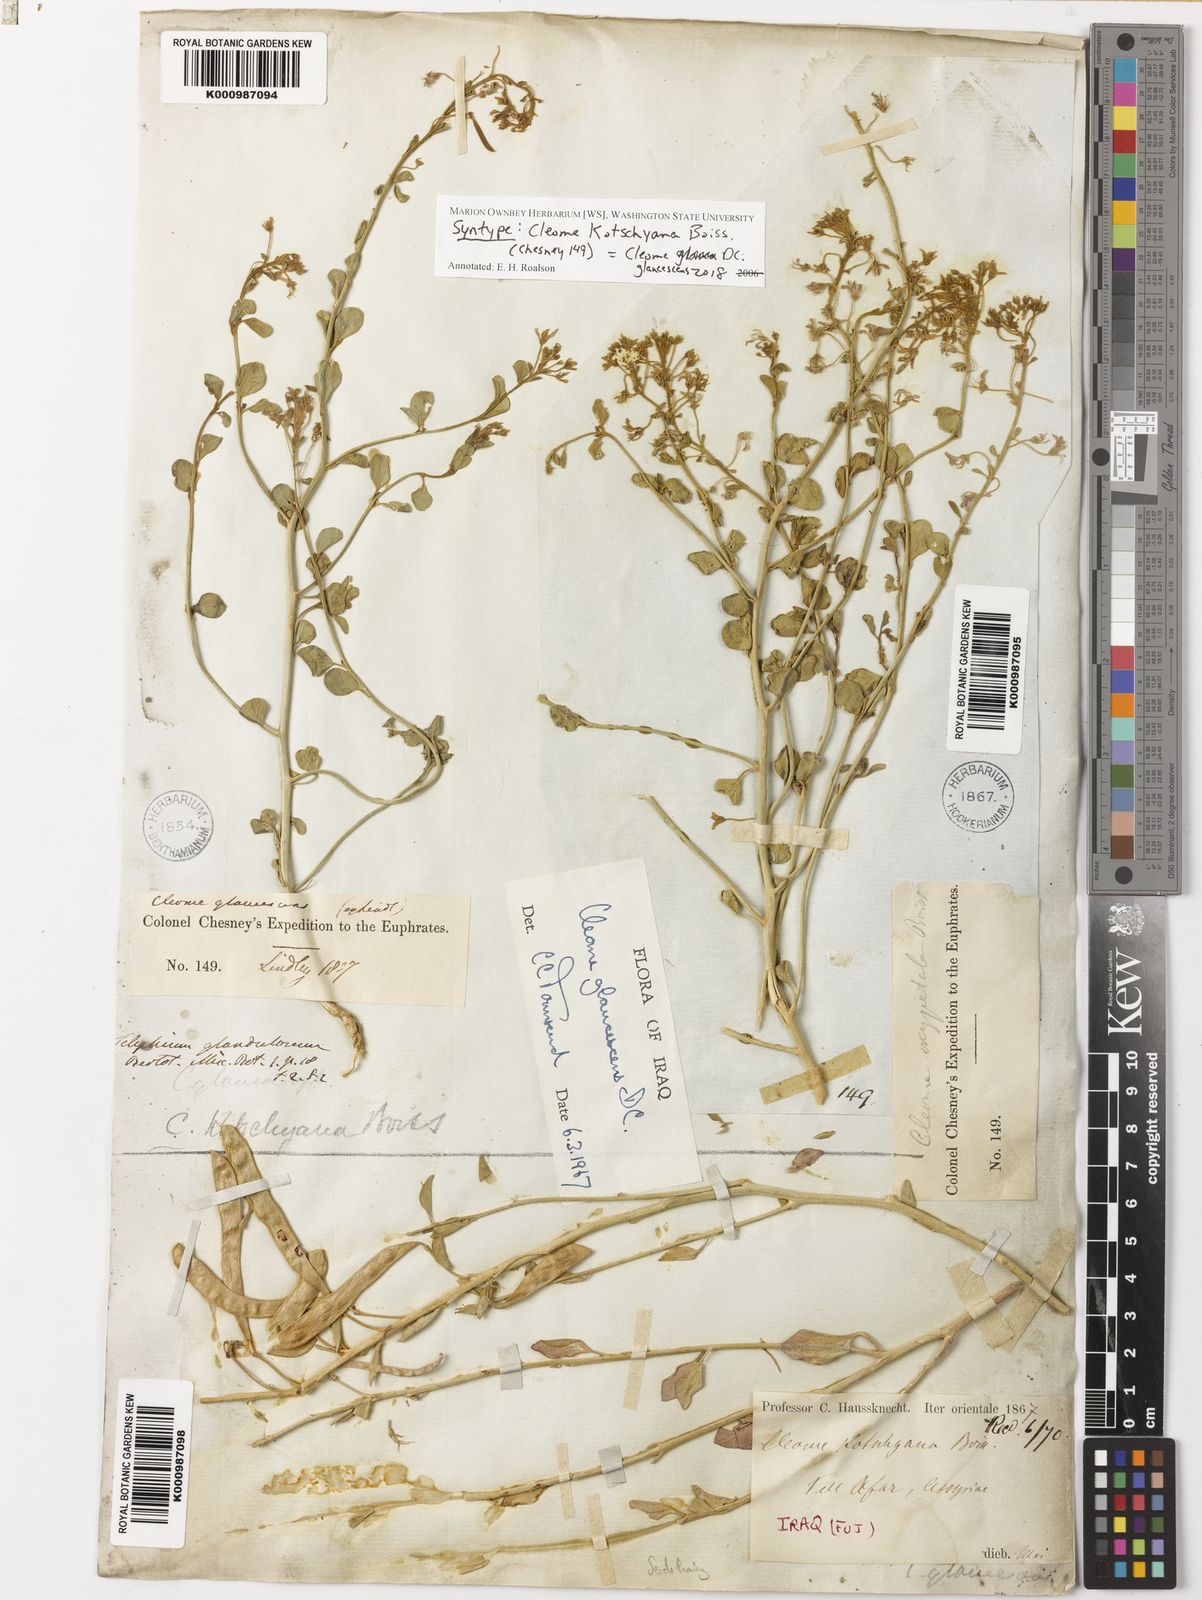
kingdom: Plantae
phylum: Tracheophyta
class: Magnoliopsida
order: Brassicales
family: Cleomaceae
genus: Cleome
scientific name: Cleome glaucescens
